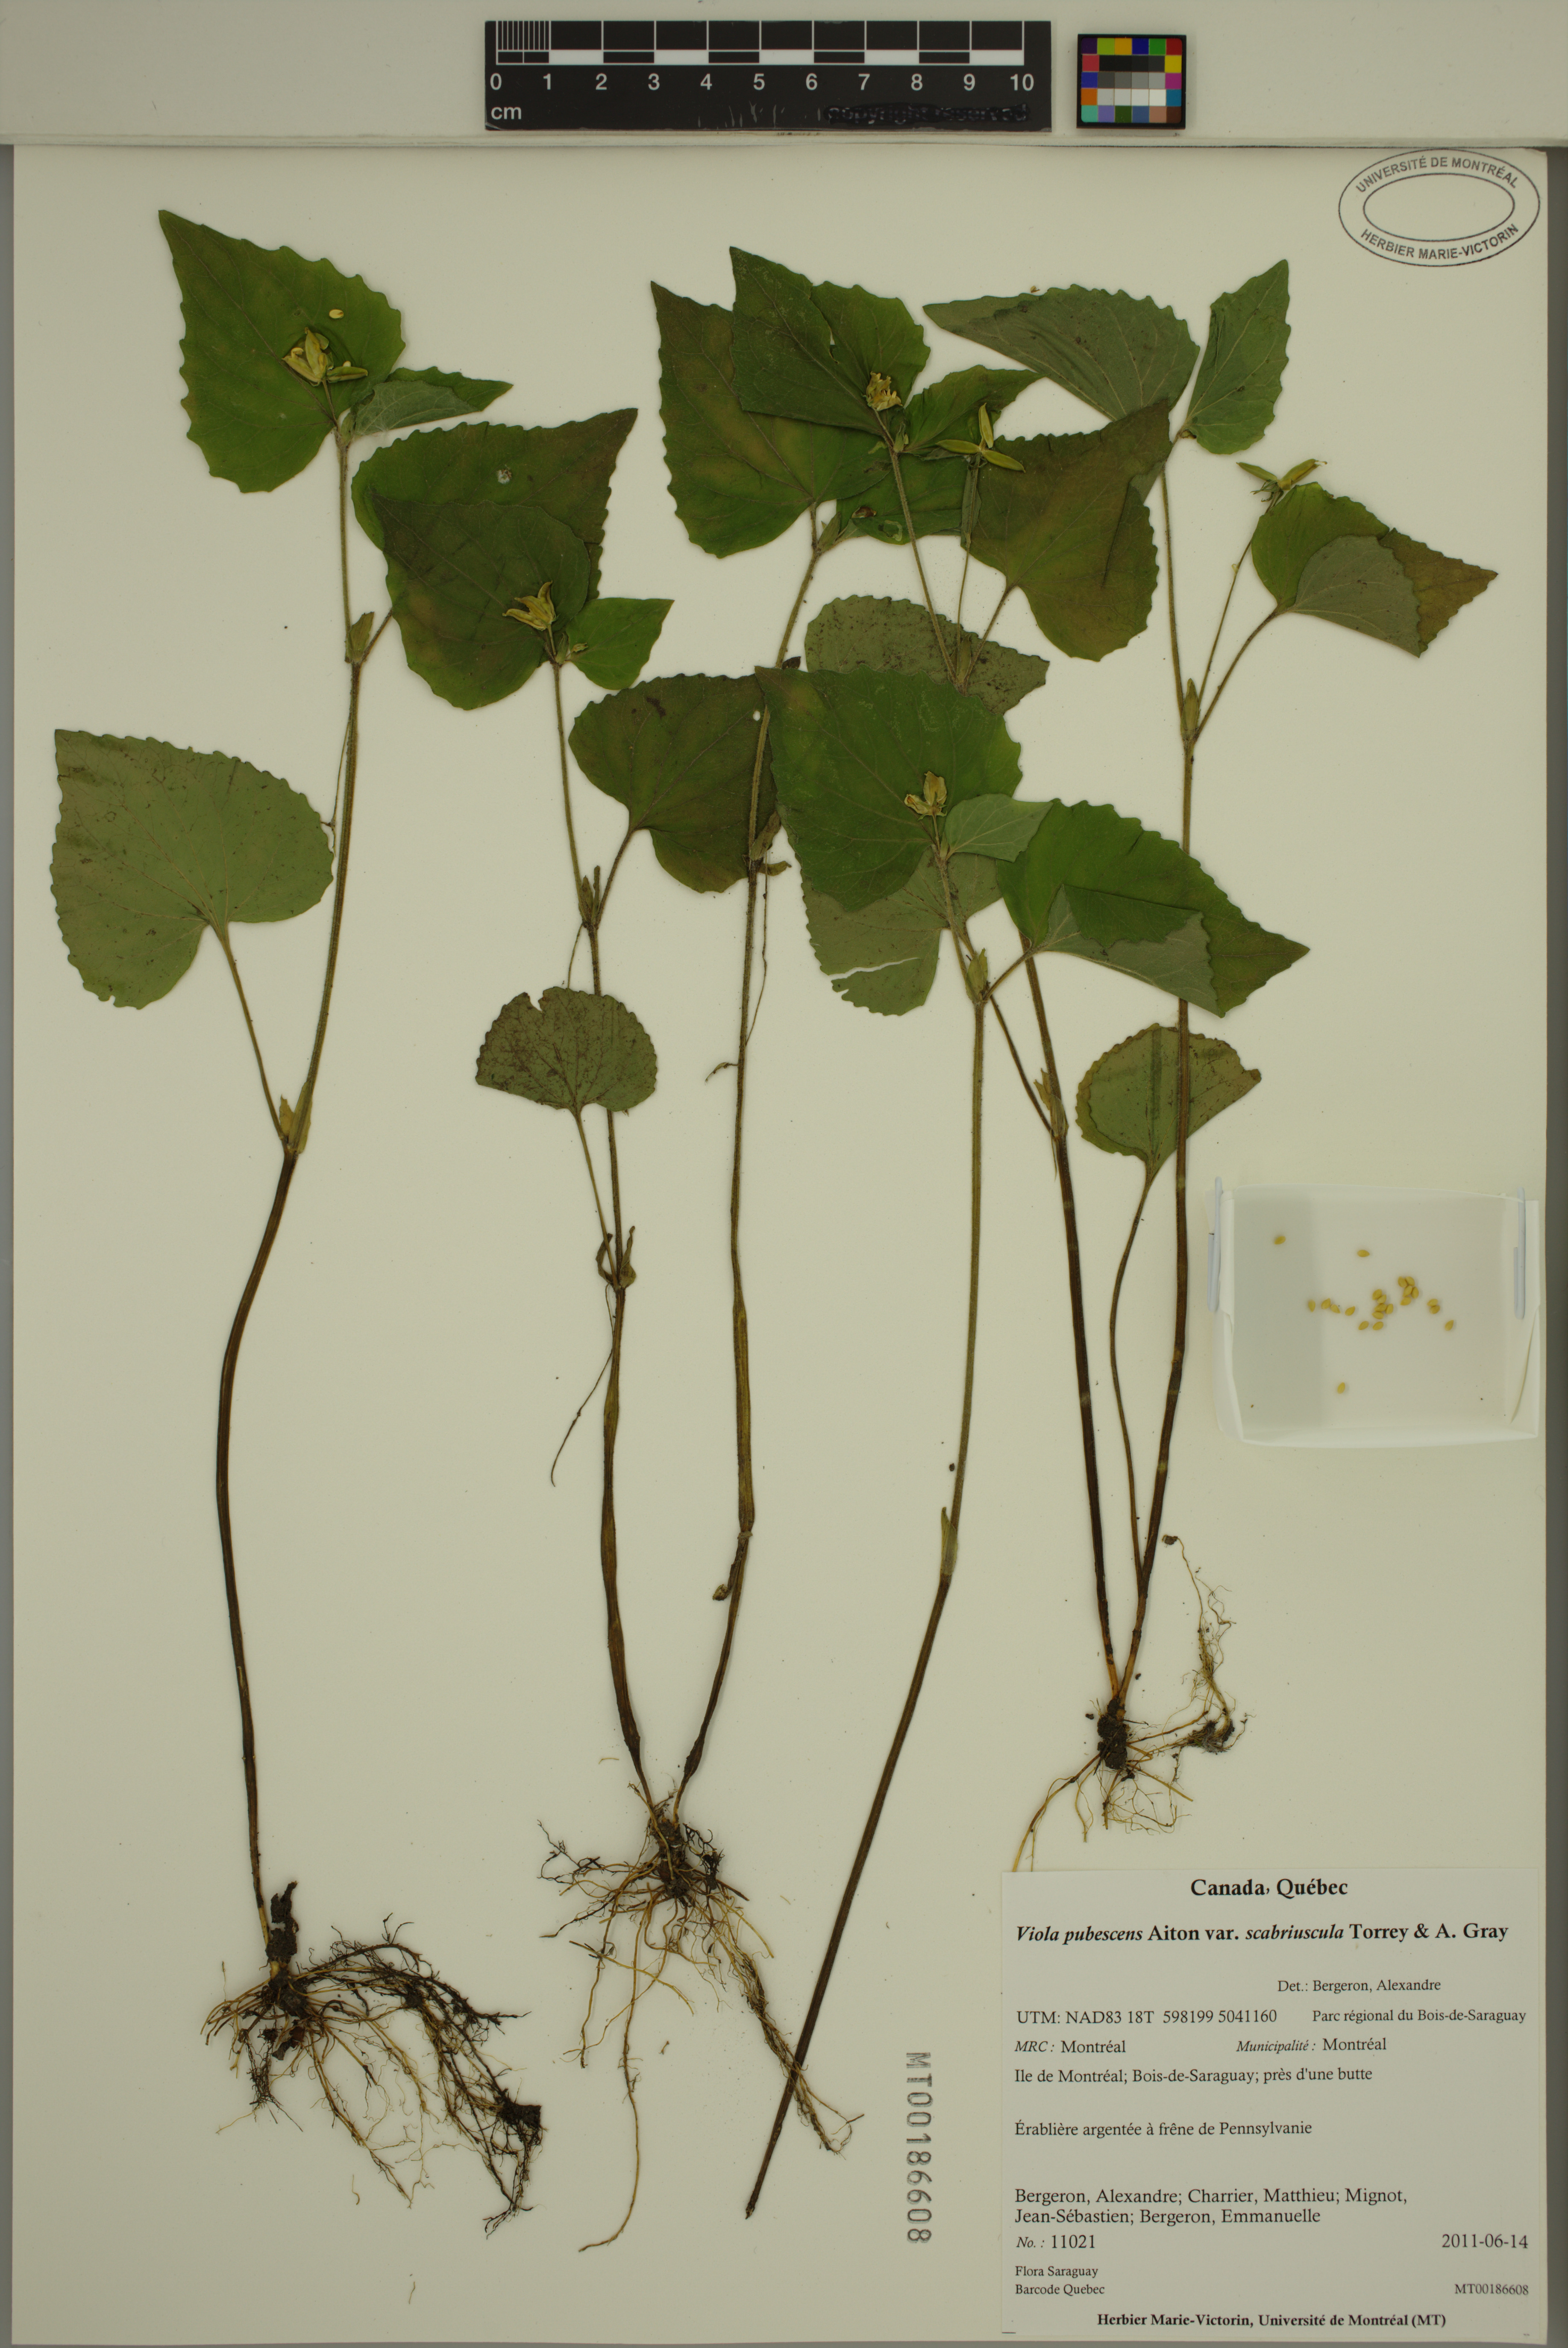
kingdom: Plantae
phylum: Tracheophyta
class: Magnoliopsida
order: Malpighiales
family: Violaceae
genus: Viola
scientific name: Viola eriocarpa
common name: Smooth yellow violet
